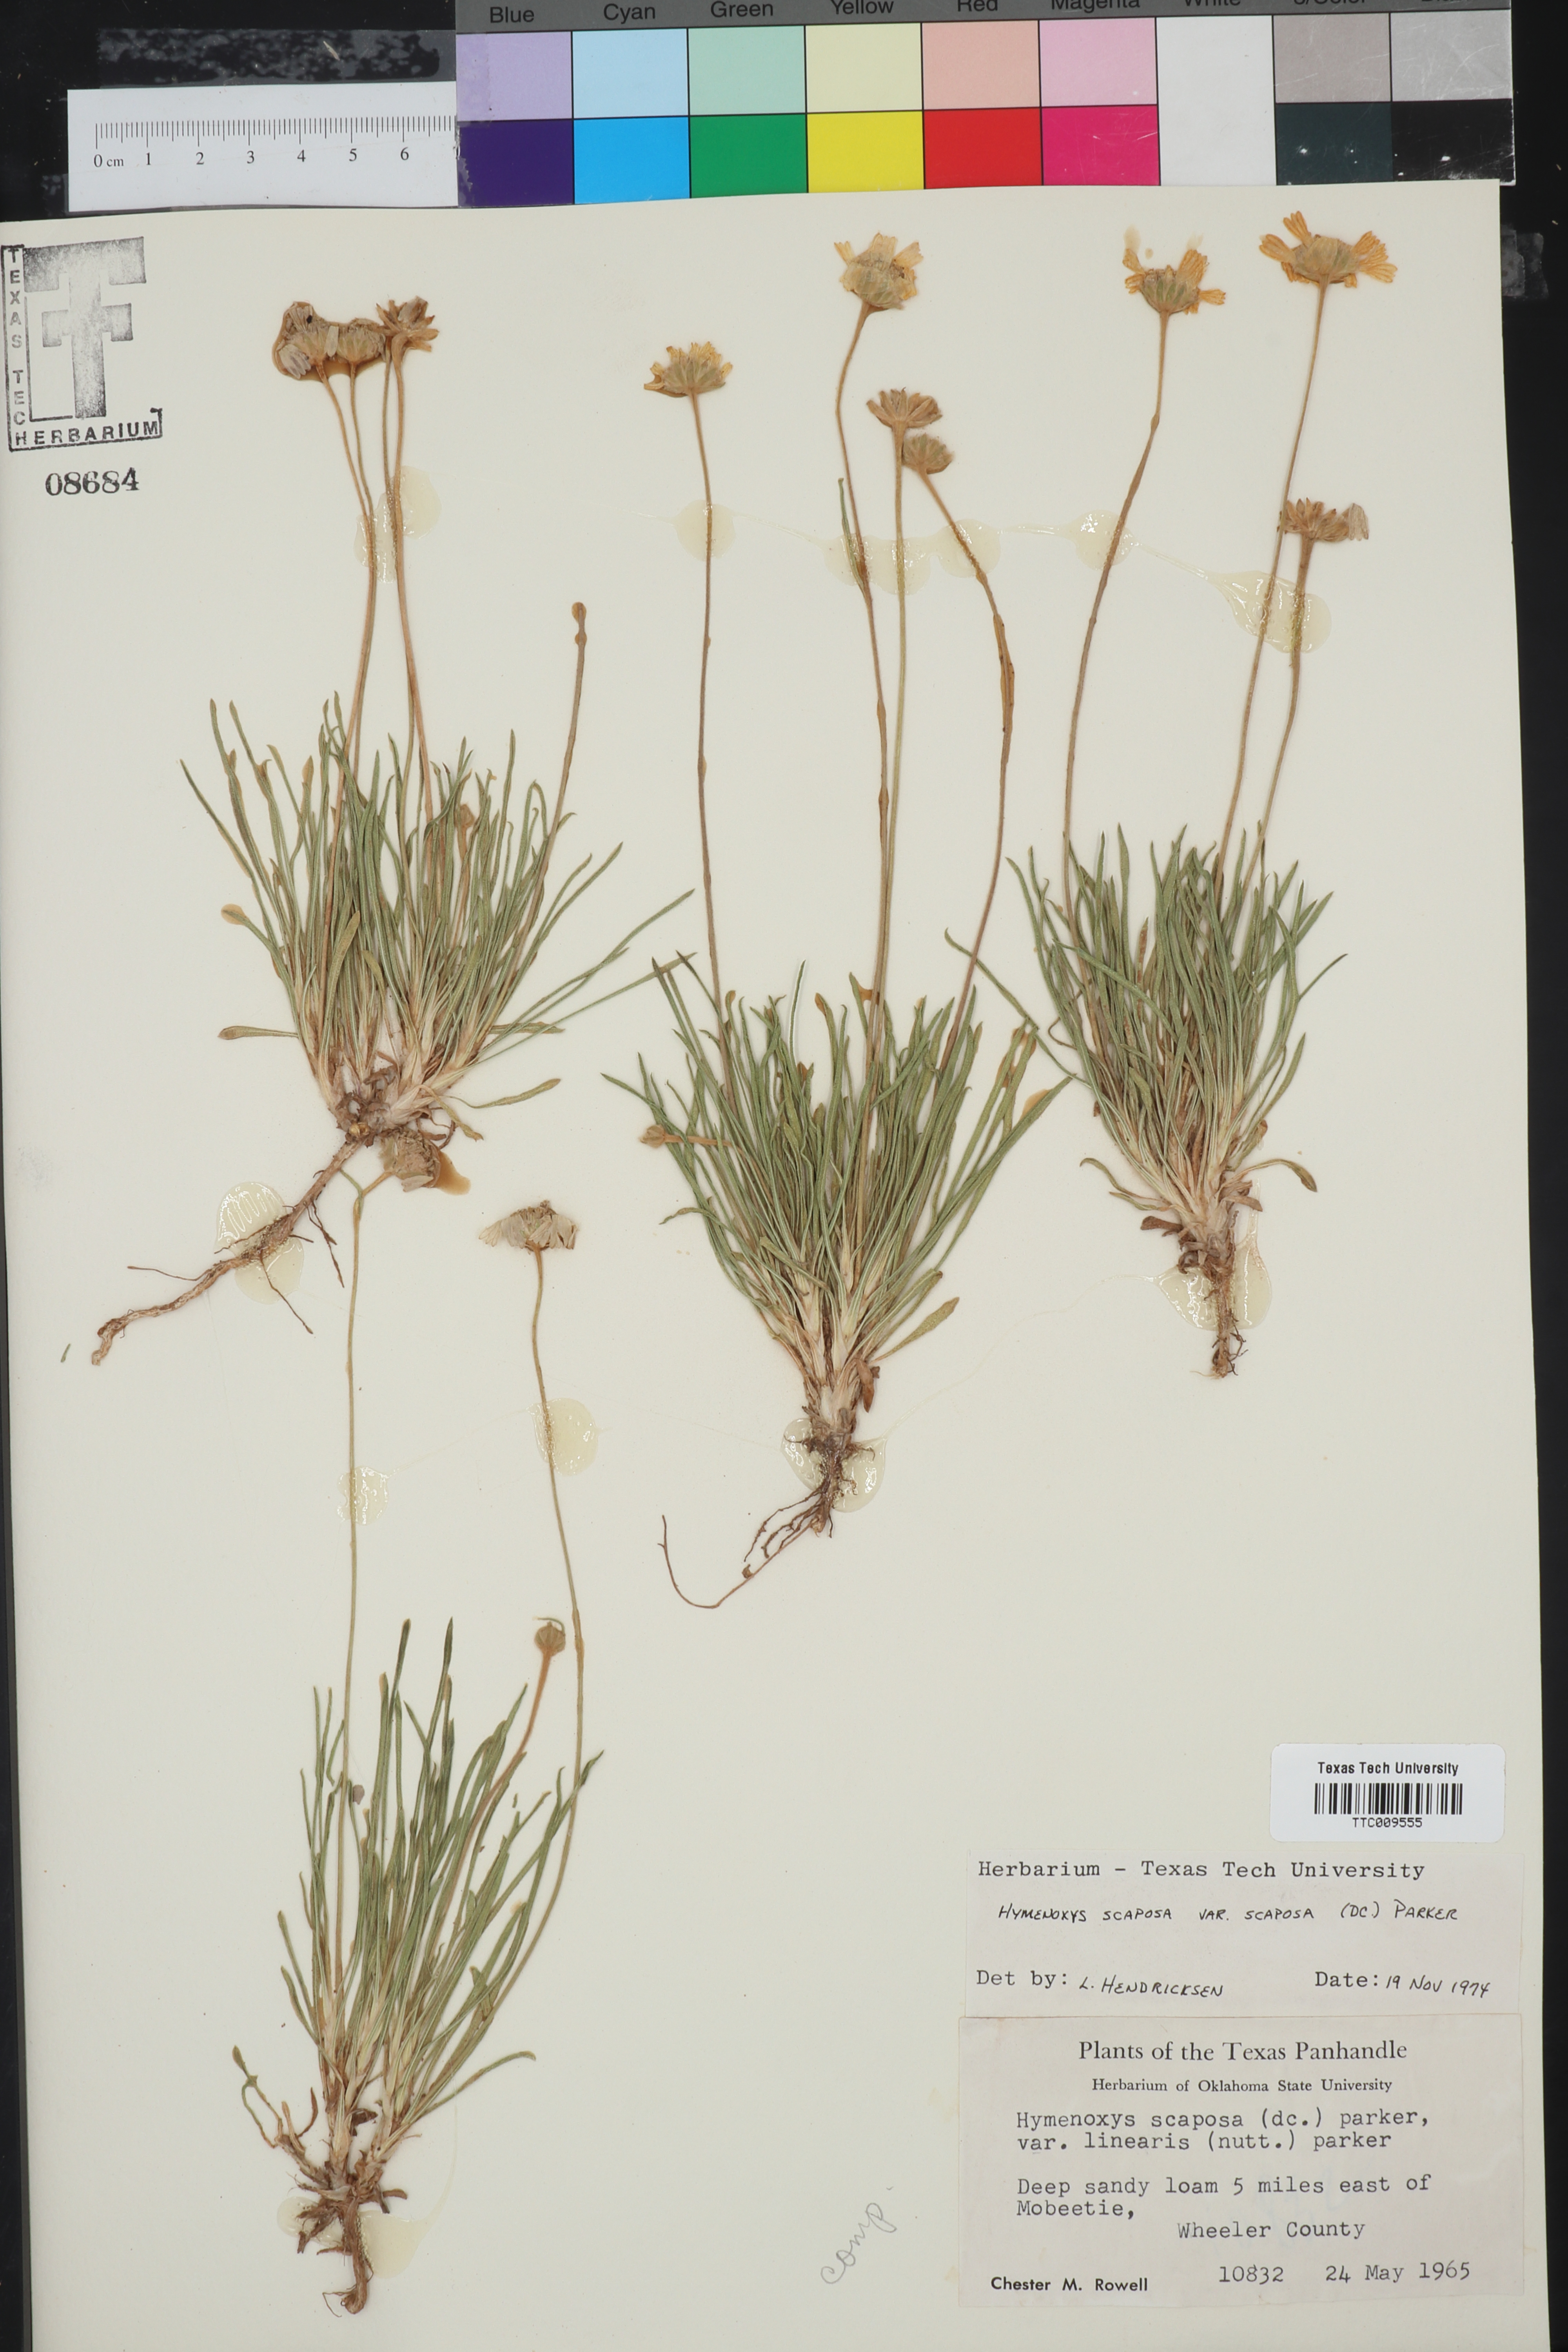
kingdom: Plantae
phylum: Tracheophyta
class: Magnoliopsida
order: Asterales
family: Asteraceae
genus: Tetraneuris
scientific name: Tetraneuris scaposa
